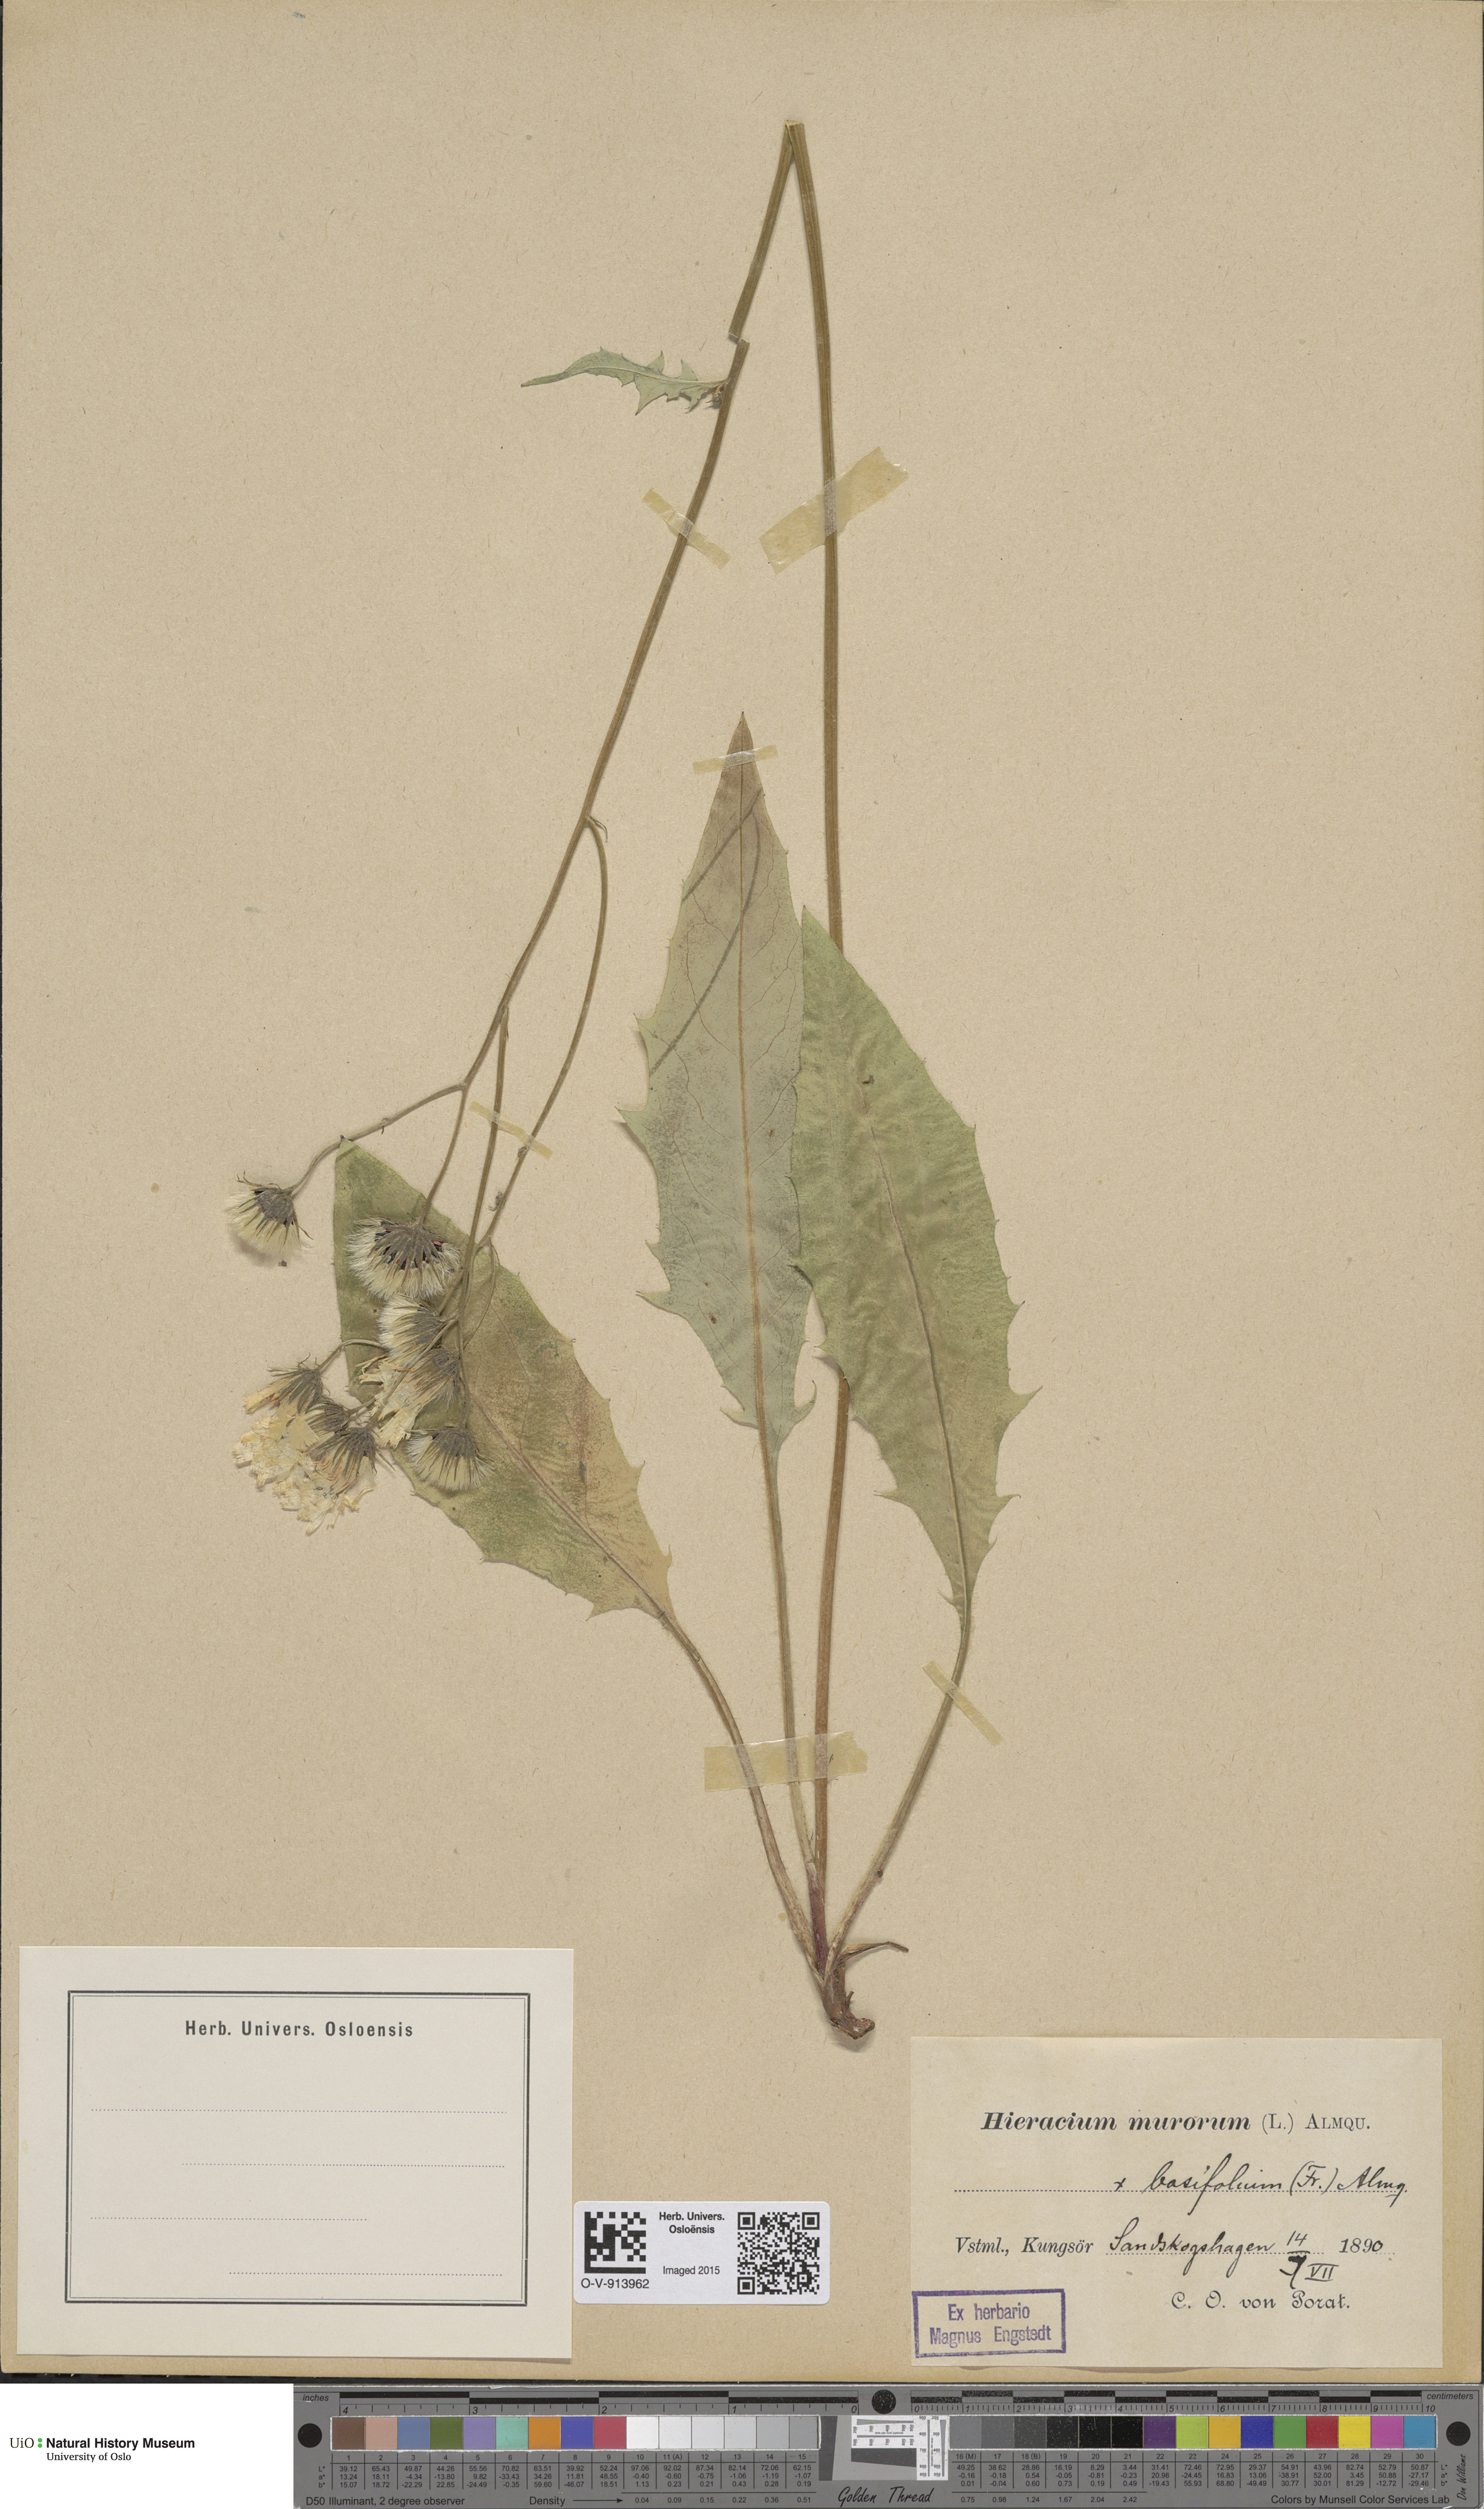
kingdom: Plantae
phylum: Tracheophyta
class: Magnoliopsida
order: Asterales
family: Asteraceae
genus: Hieracium
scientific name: Hieracium basifolium
